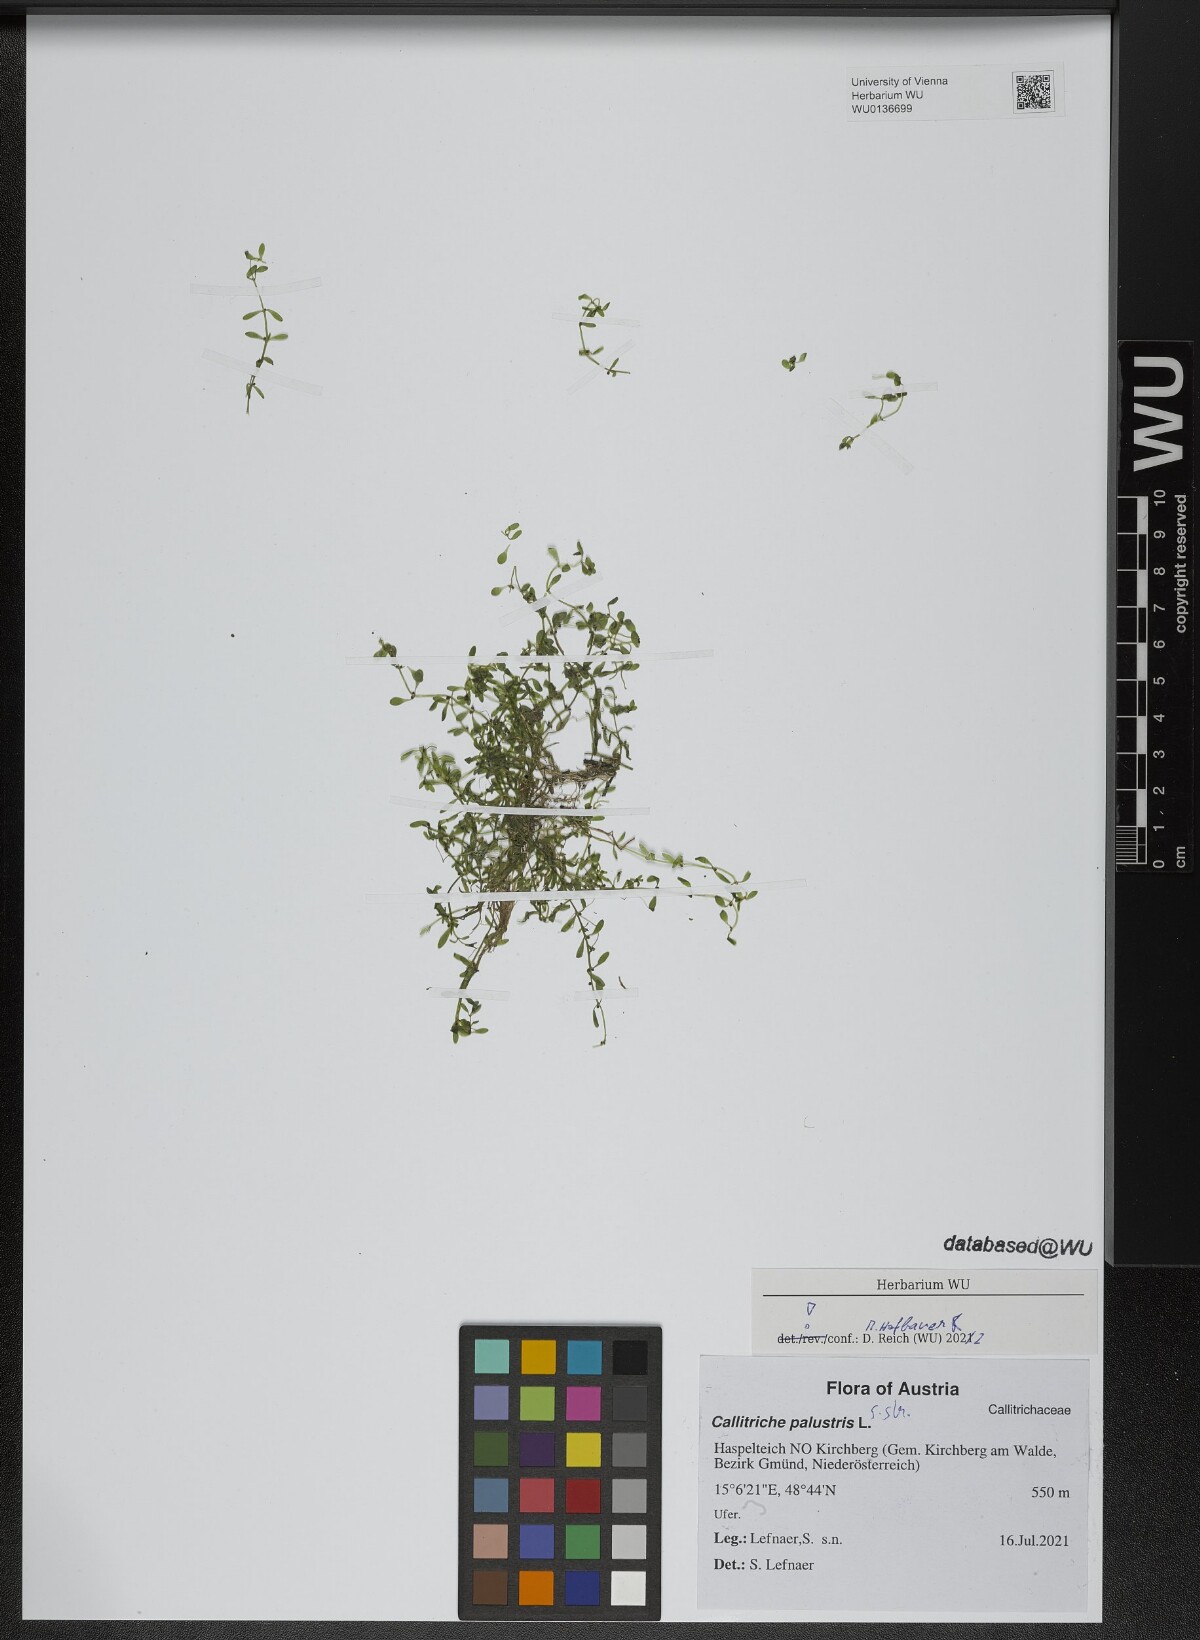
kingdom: Plantae
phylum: Tracheophyta
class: Magnoliopsida
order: Lamiales
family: Plantaginaceae
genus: Callitriche
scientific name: Callitriche palustris
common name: Spring water-starwort
